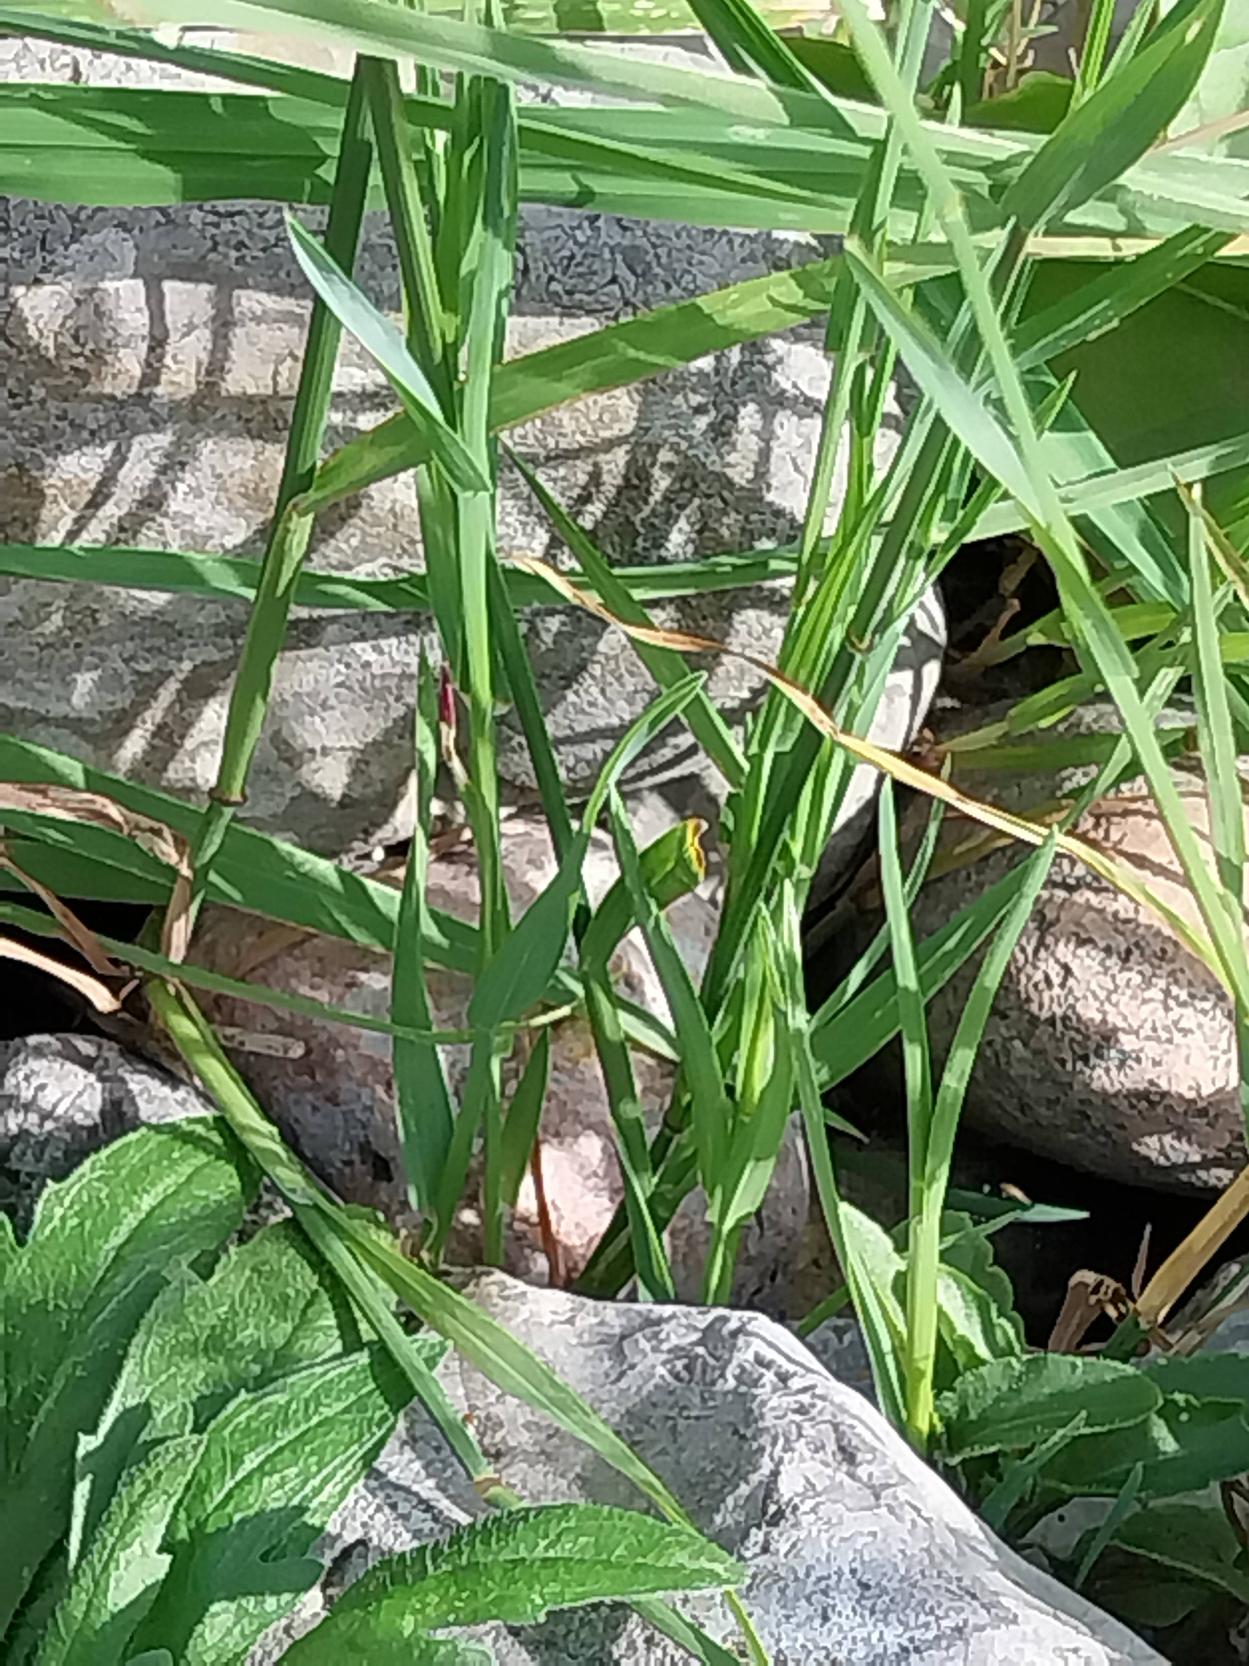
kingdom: Plantae
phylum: Tracheophyta
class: Liliopsida
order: Poales
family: Poaceae
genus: Poa
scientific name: Poa compressa
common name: Fladstrået rapgræs
